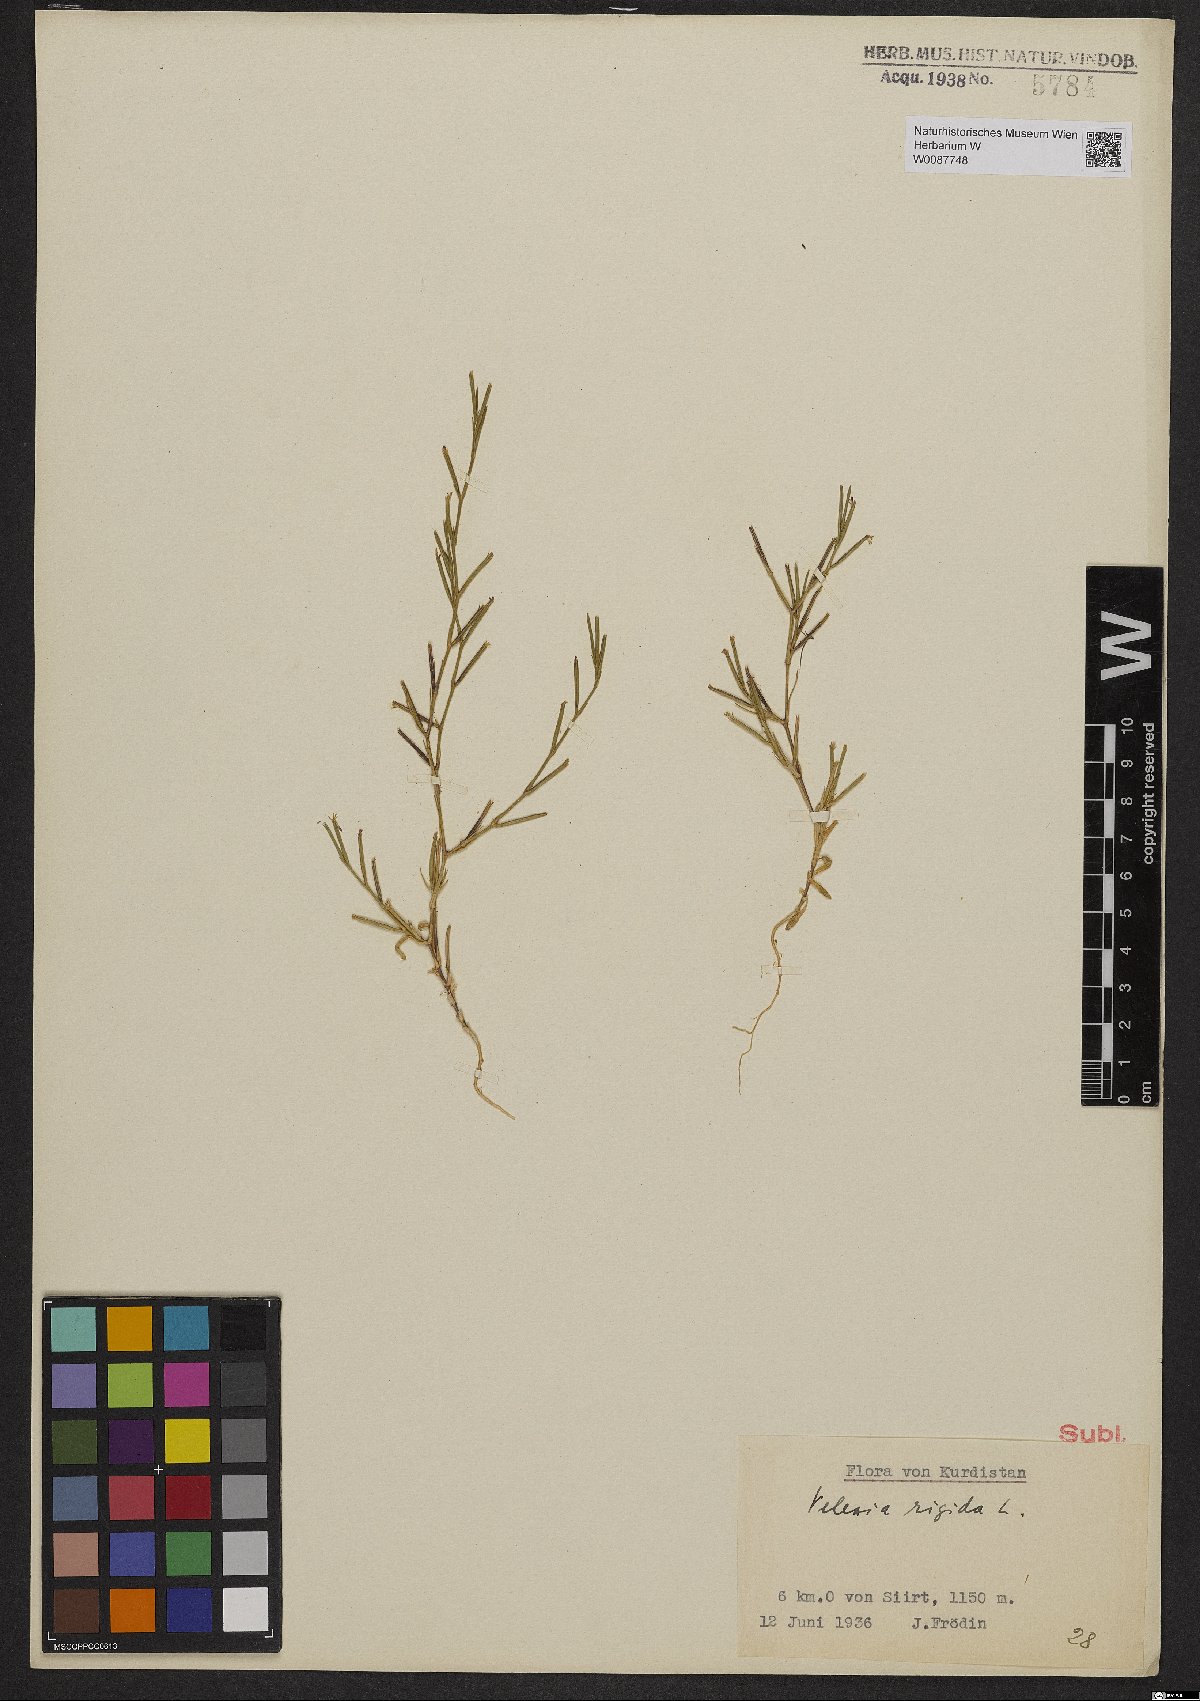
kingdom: Plantae
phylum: Tracheophyta
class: Magnoliopsida
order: Caryophyllales
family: Caryophyllaceae
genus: Dianthus
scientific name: Dianthus nudiflorus
